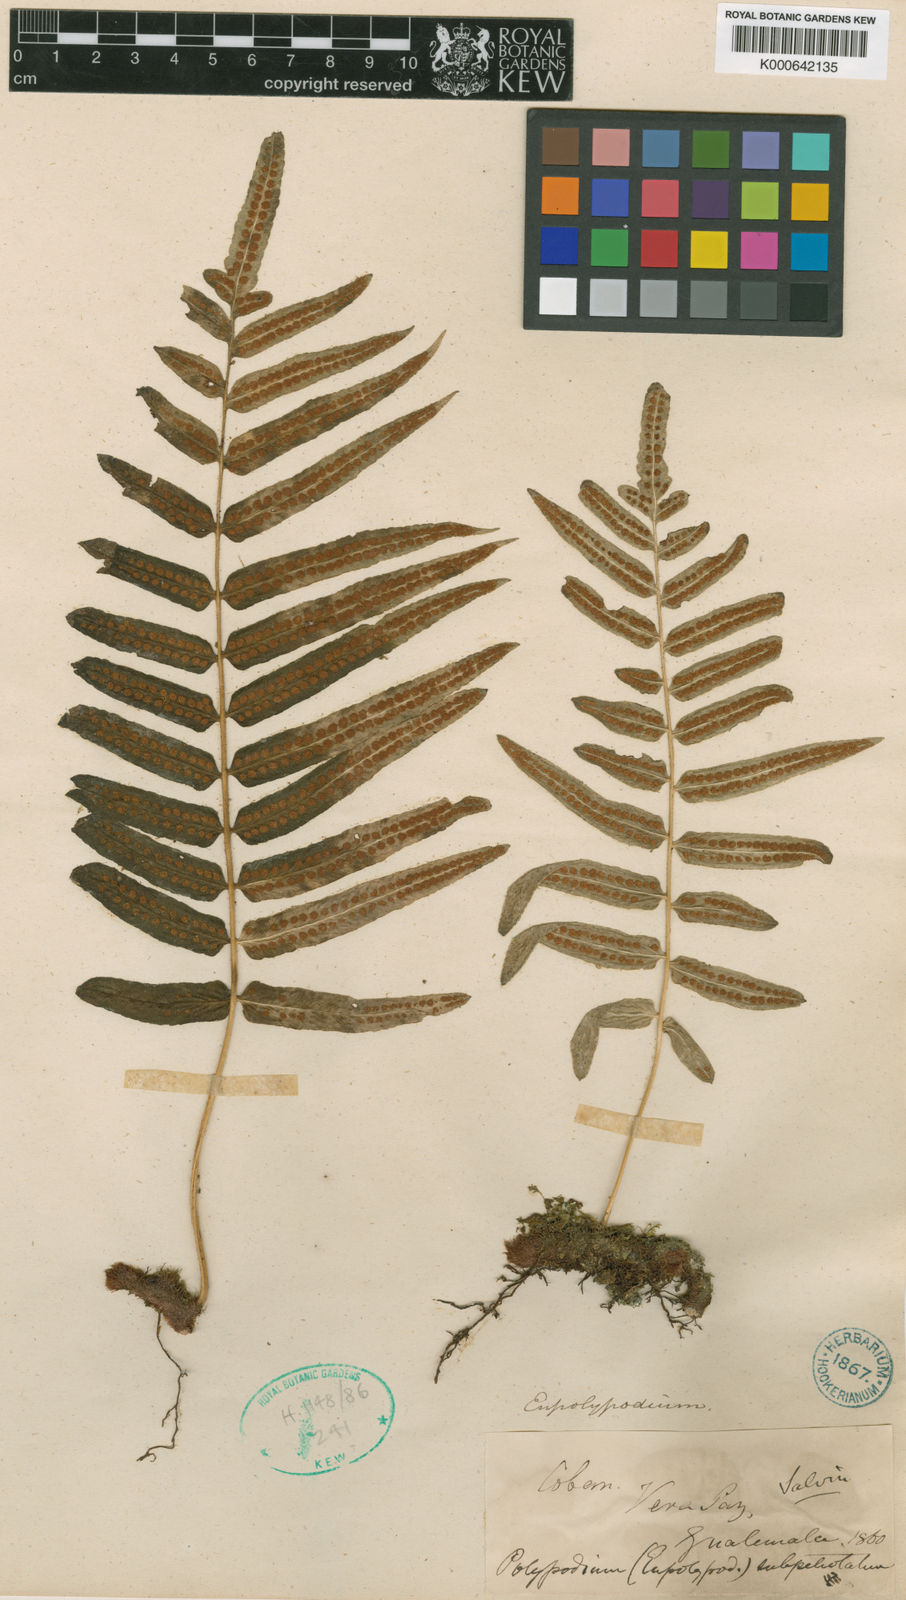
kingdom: Plantae
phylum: Tracheophyta
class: Polypodiopsida
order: Polypodiales
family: Polypodiaceae
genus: Polypodium
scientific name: Polypodium echinolepis
